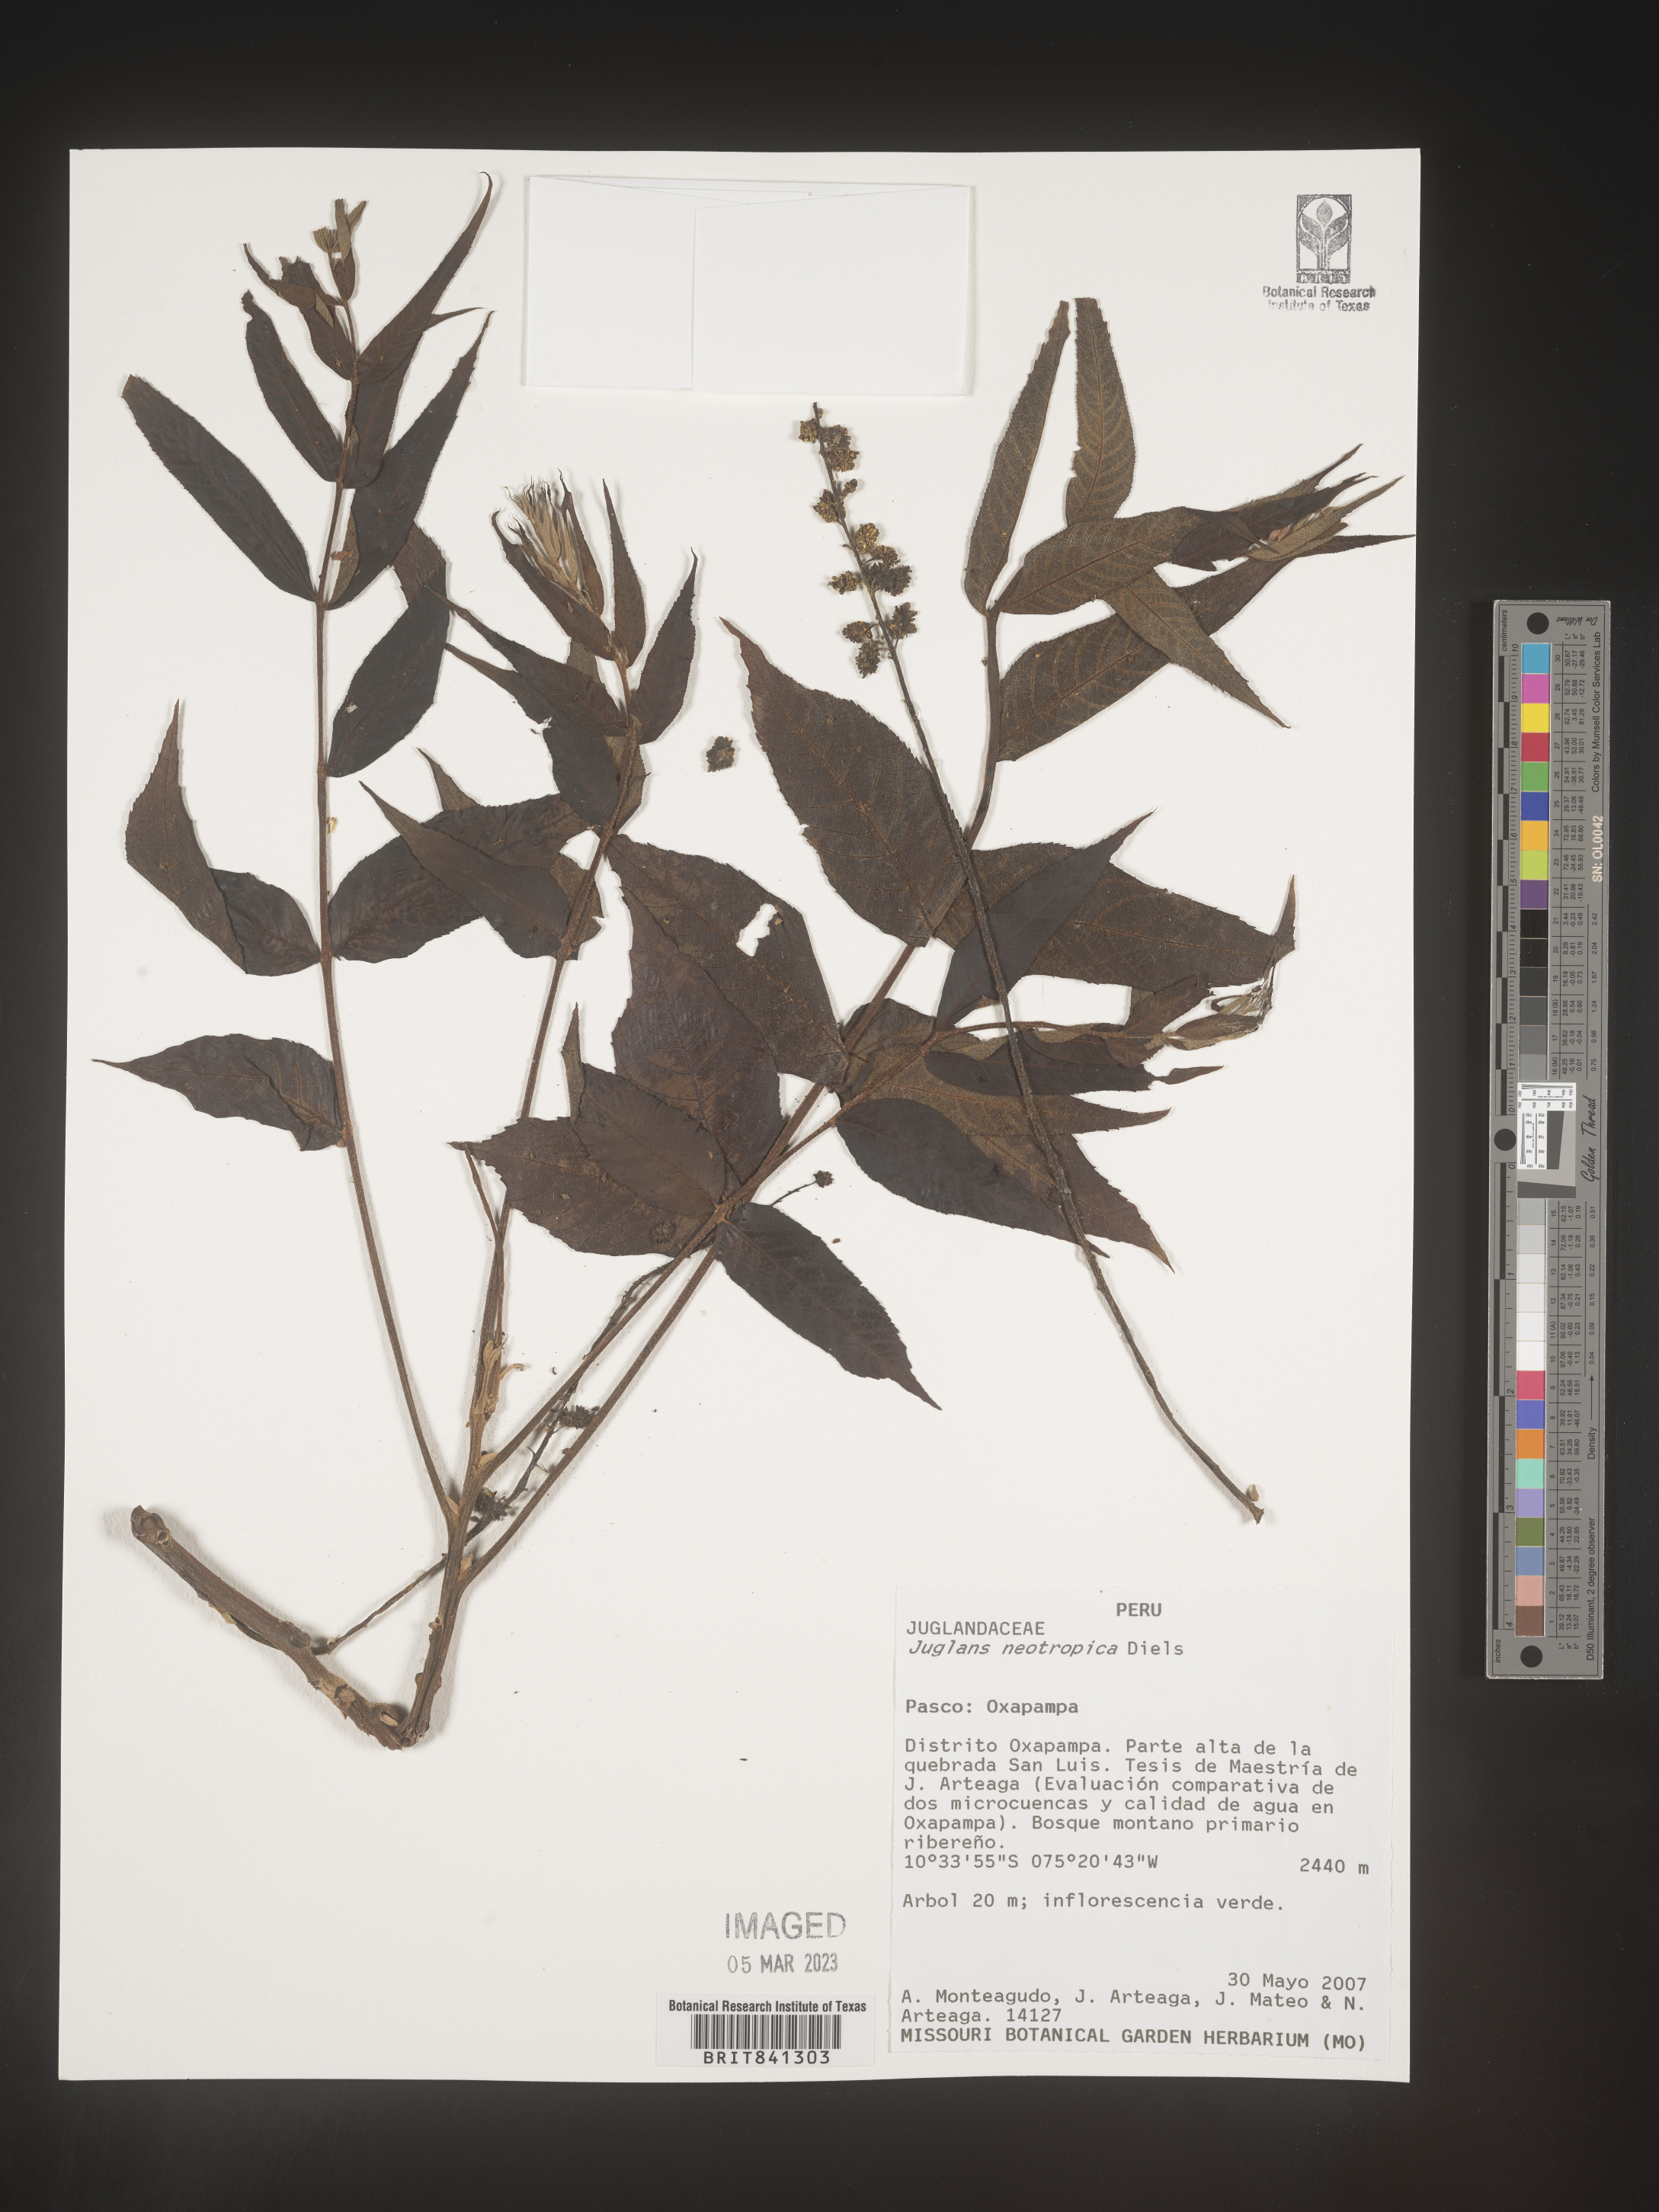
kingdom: Plantae
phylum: Tracheophyta
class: Magnoliopsida
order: Fagales
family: Juglandaceae
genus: Juglans
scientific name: Juglans neotropica
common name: Andean walnut
